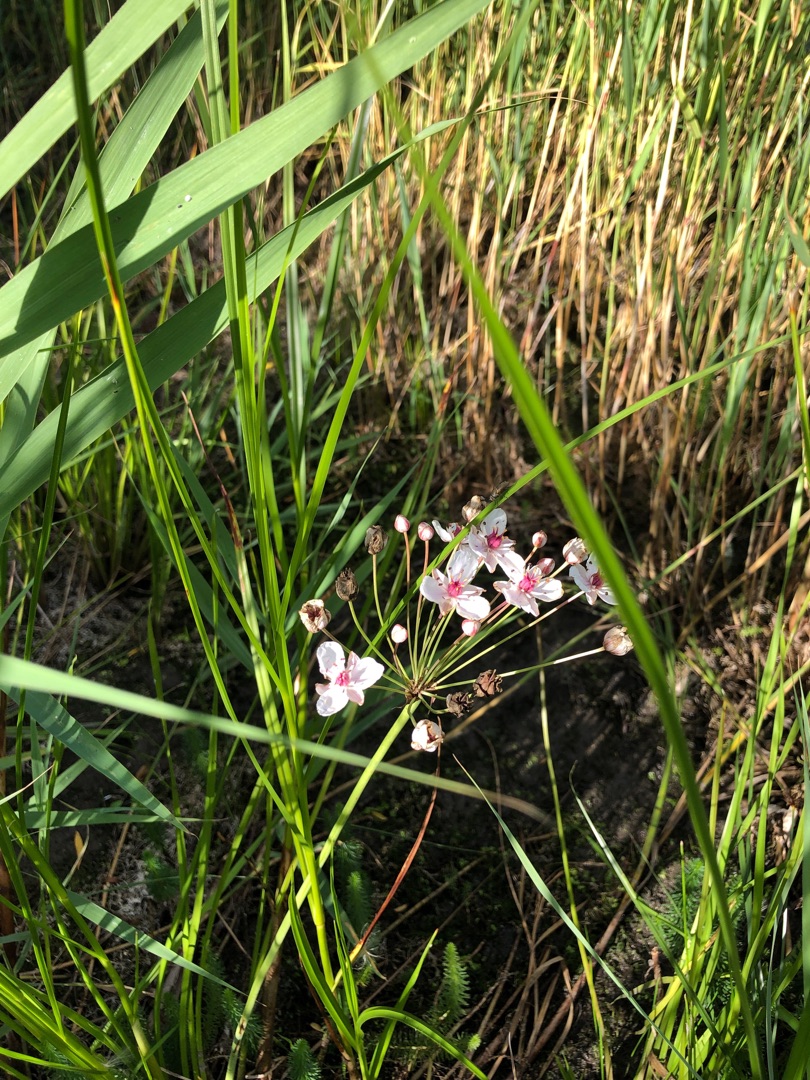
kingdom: Plantae
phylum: Tracheophyta
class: Liliopsida
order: Alismatales
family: Butomaceae
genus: Butomus
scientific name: Butomus umbellatus
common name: Brudelys
